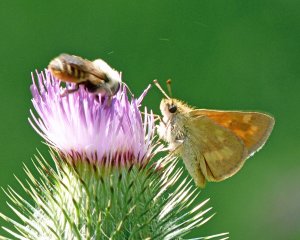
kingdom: Animalia
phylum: Arthropoda
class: Insecta
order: Lepidoptera
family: Hesperiidae
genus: Ochlodes
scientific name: Ochlodes sylvanoides
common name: Woodland Skipper
